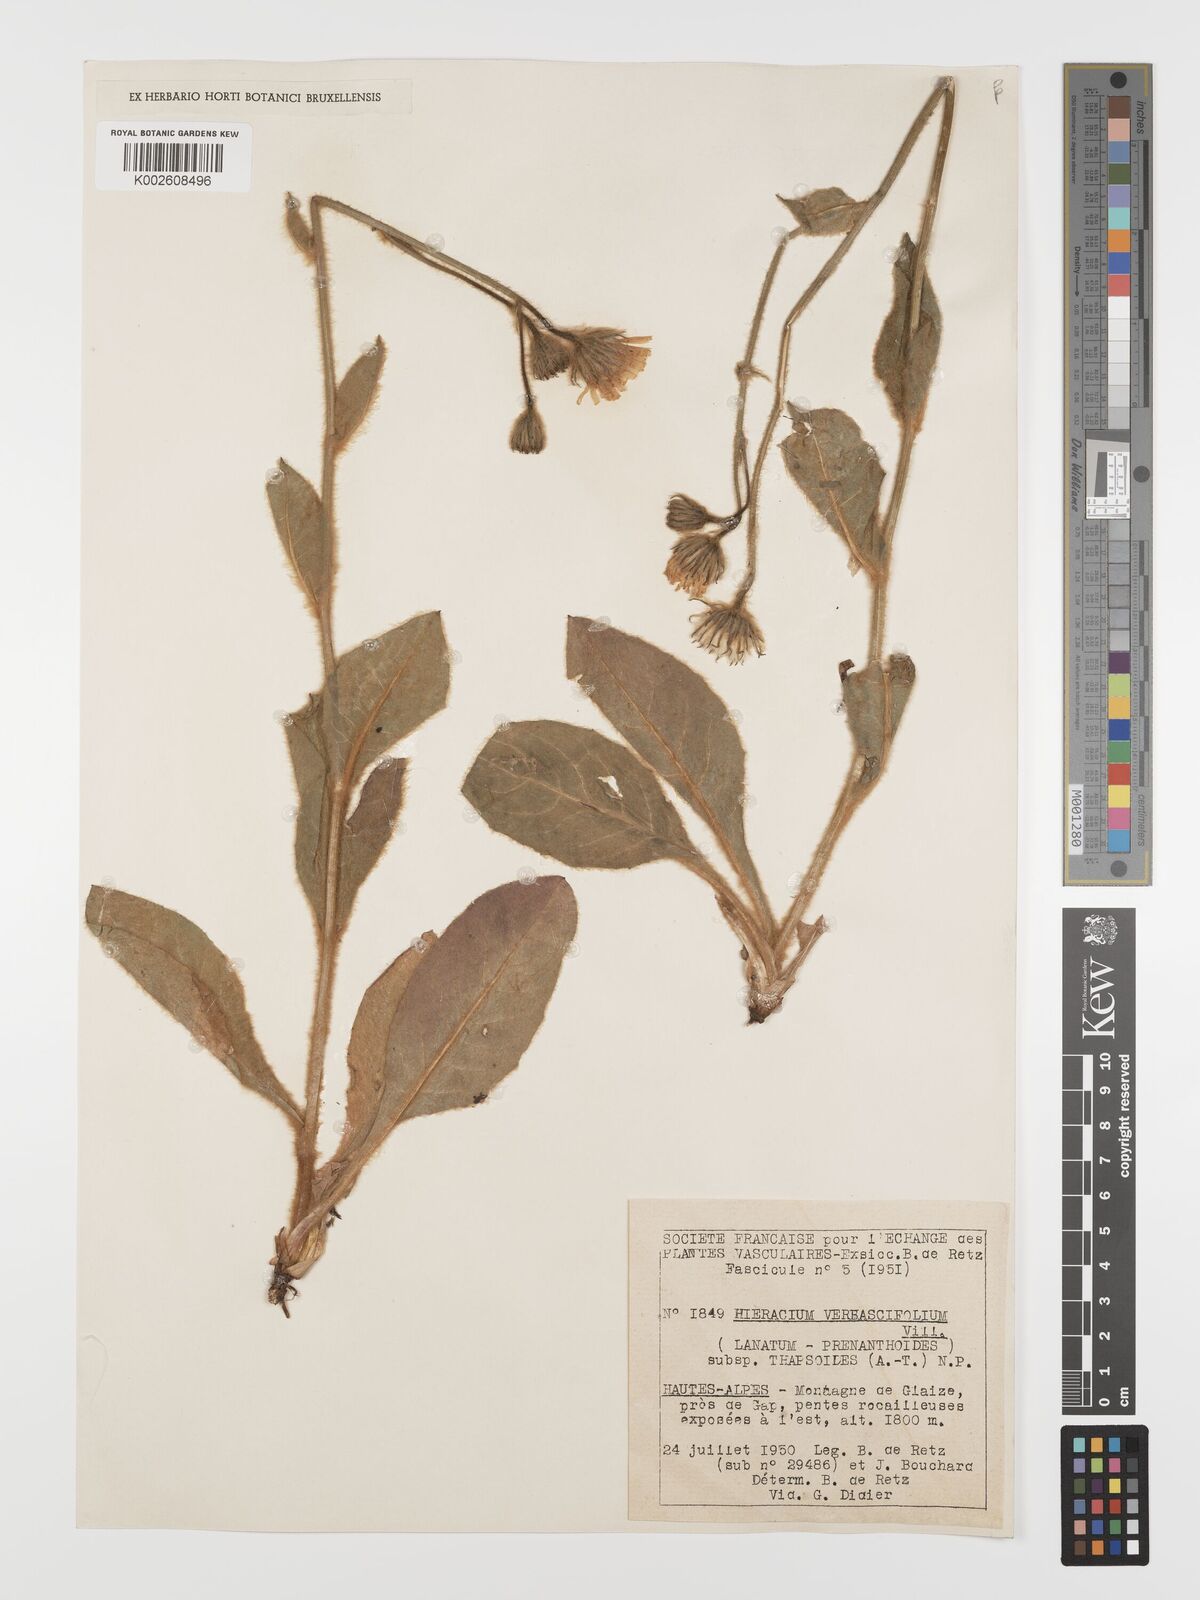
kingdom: Plantae
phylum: Tracheophyta
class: Magnoliopsida
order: Asterales
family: Asteraceae
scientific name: Asteraceae
